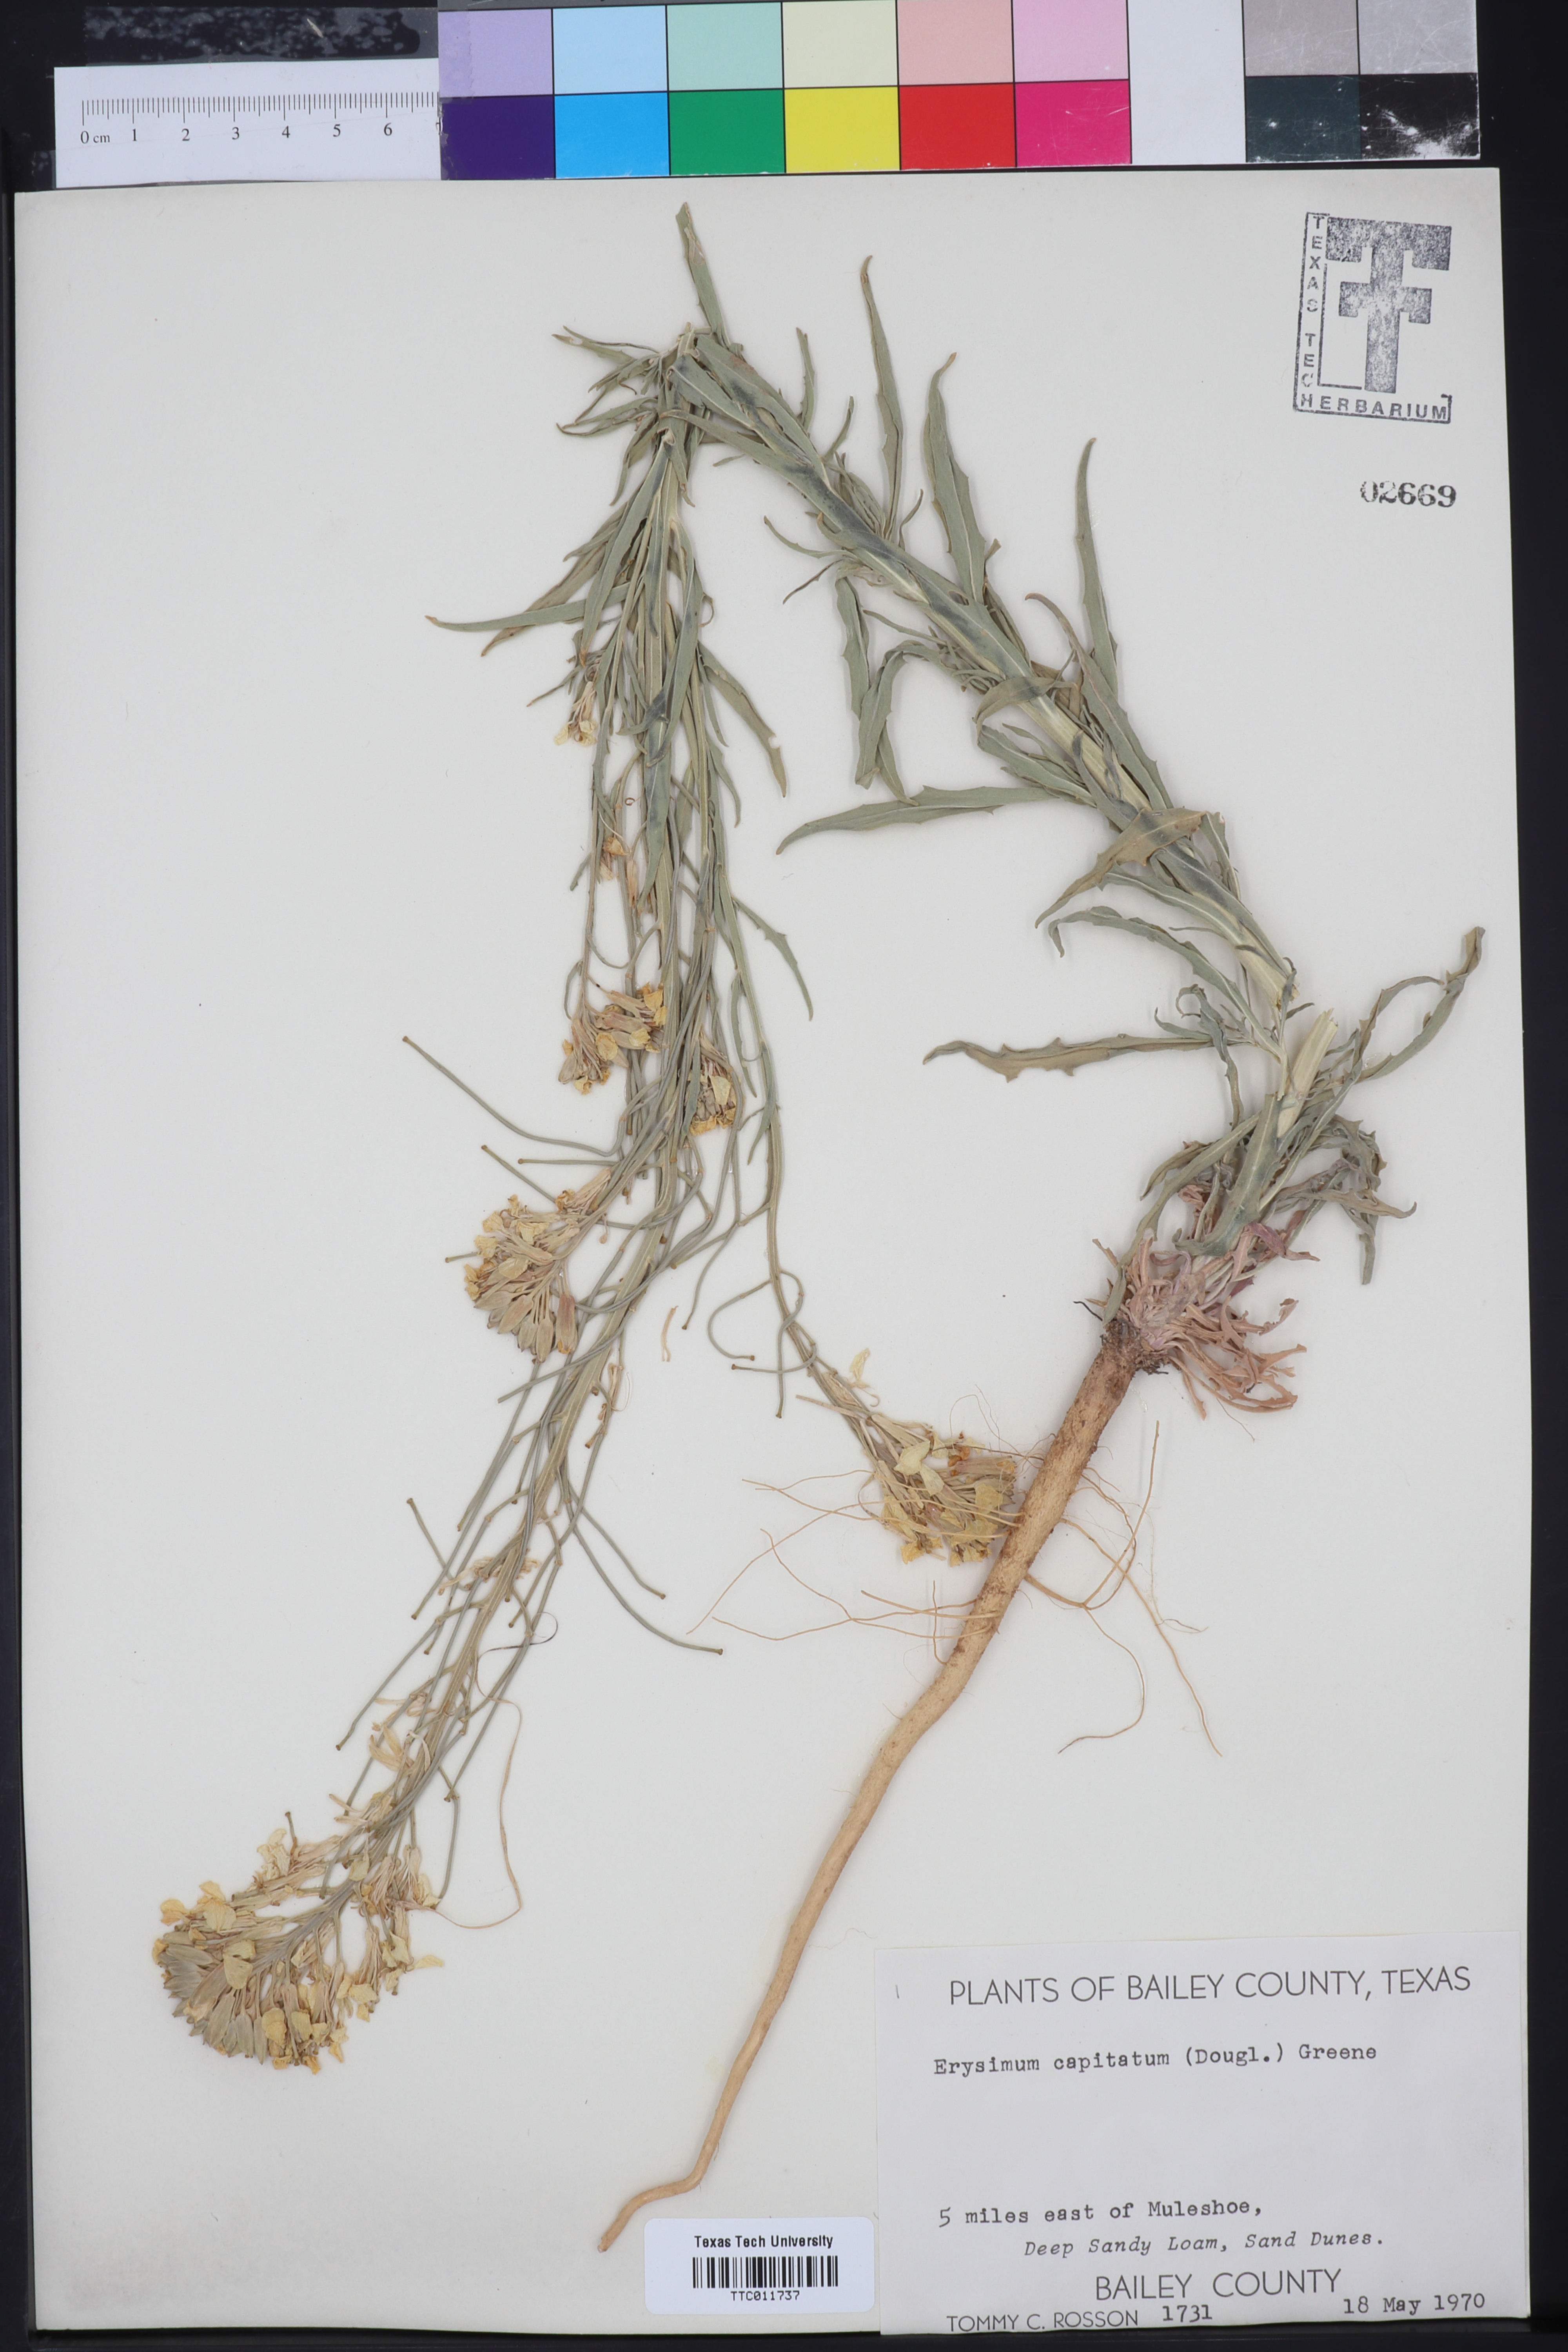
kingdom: Plantae
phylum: Tracheophyta
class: Magnoliopsida
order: Brassicales
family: Brassicaceae
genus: Erysimum
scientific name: Erysimum capitatum
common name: Western wallflower
